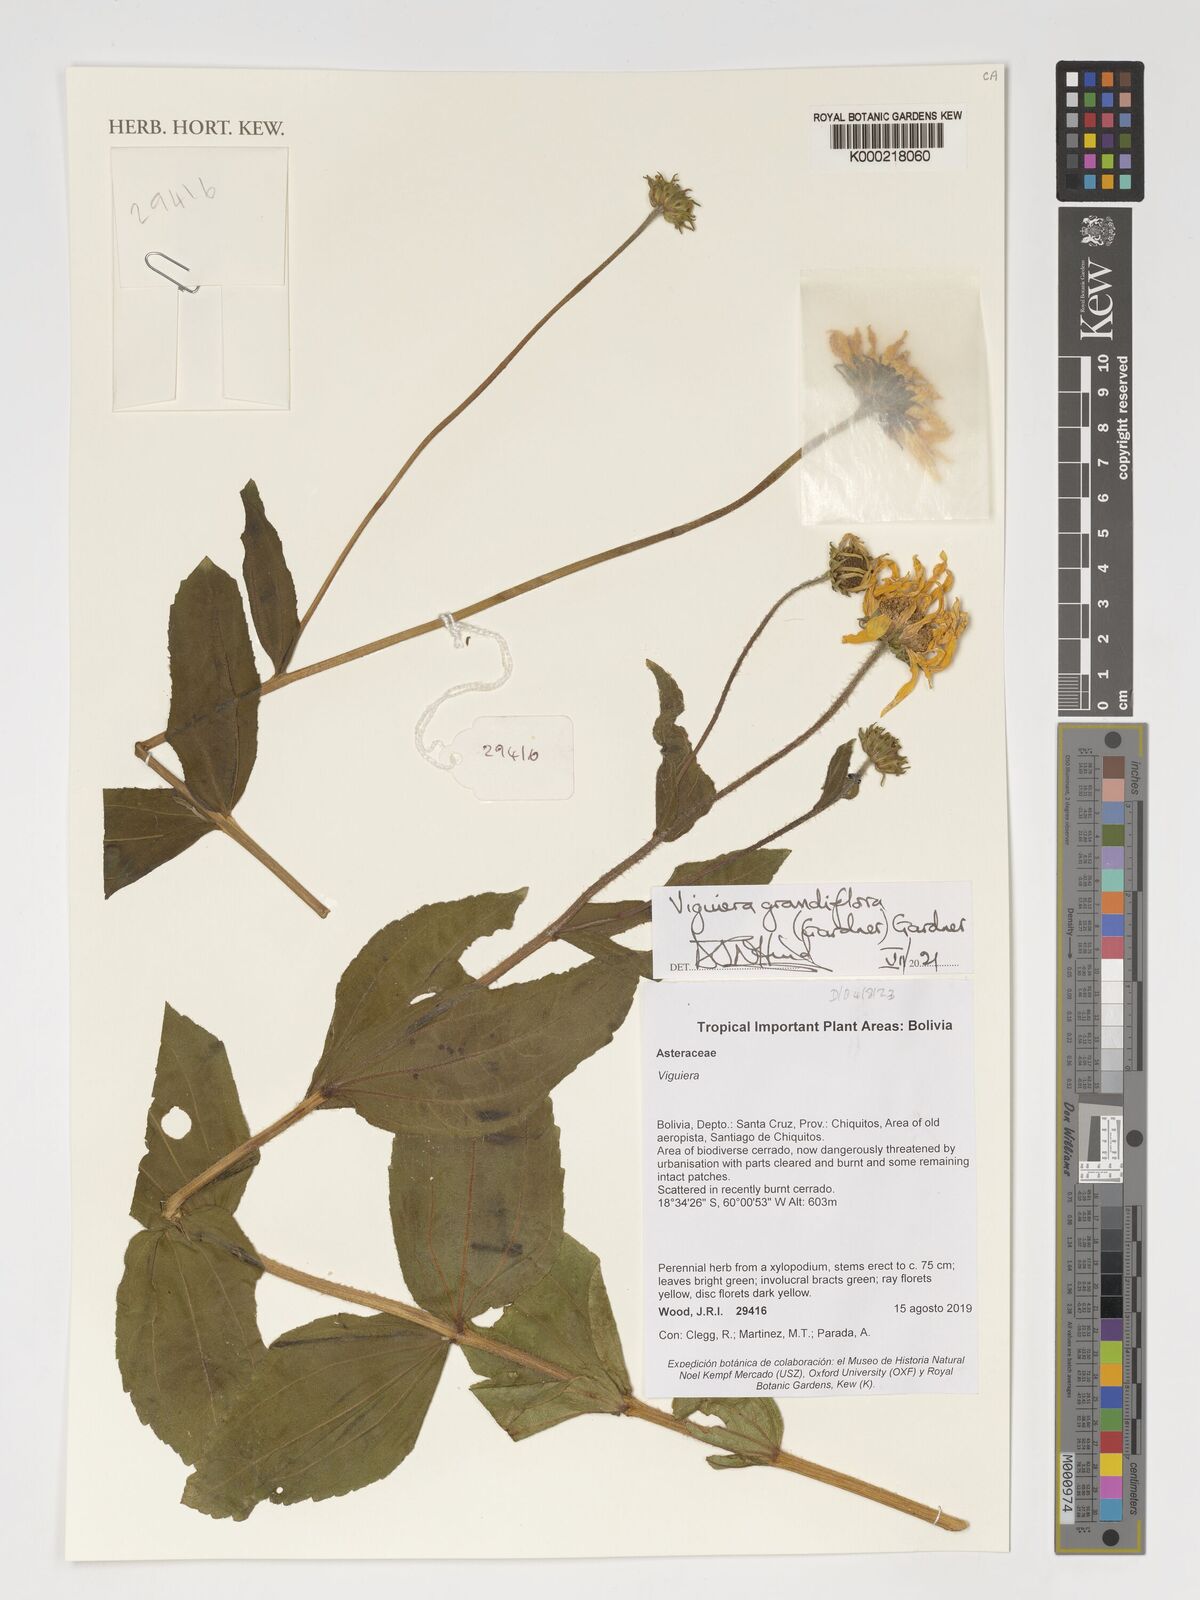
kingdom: Plantae
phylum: Tracheophyta
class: Magnoliopsida
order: Asterales
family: Asteraceae
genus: Aldama
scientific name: Aldama grandiflora
